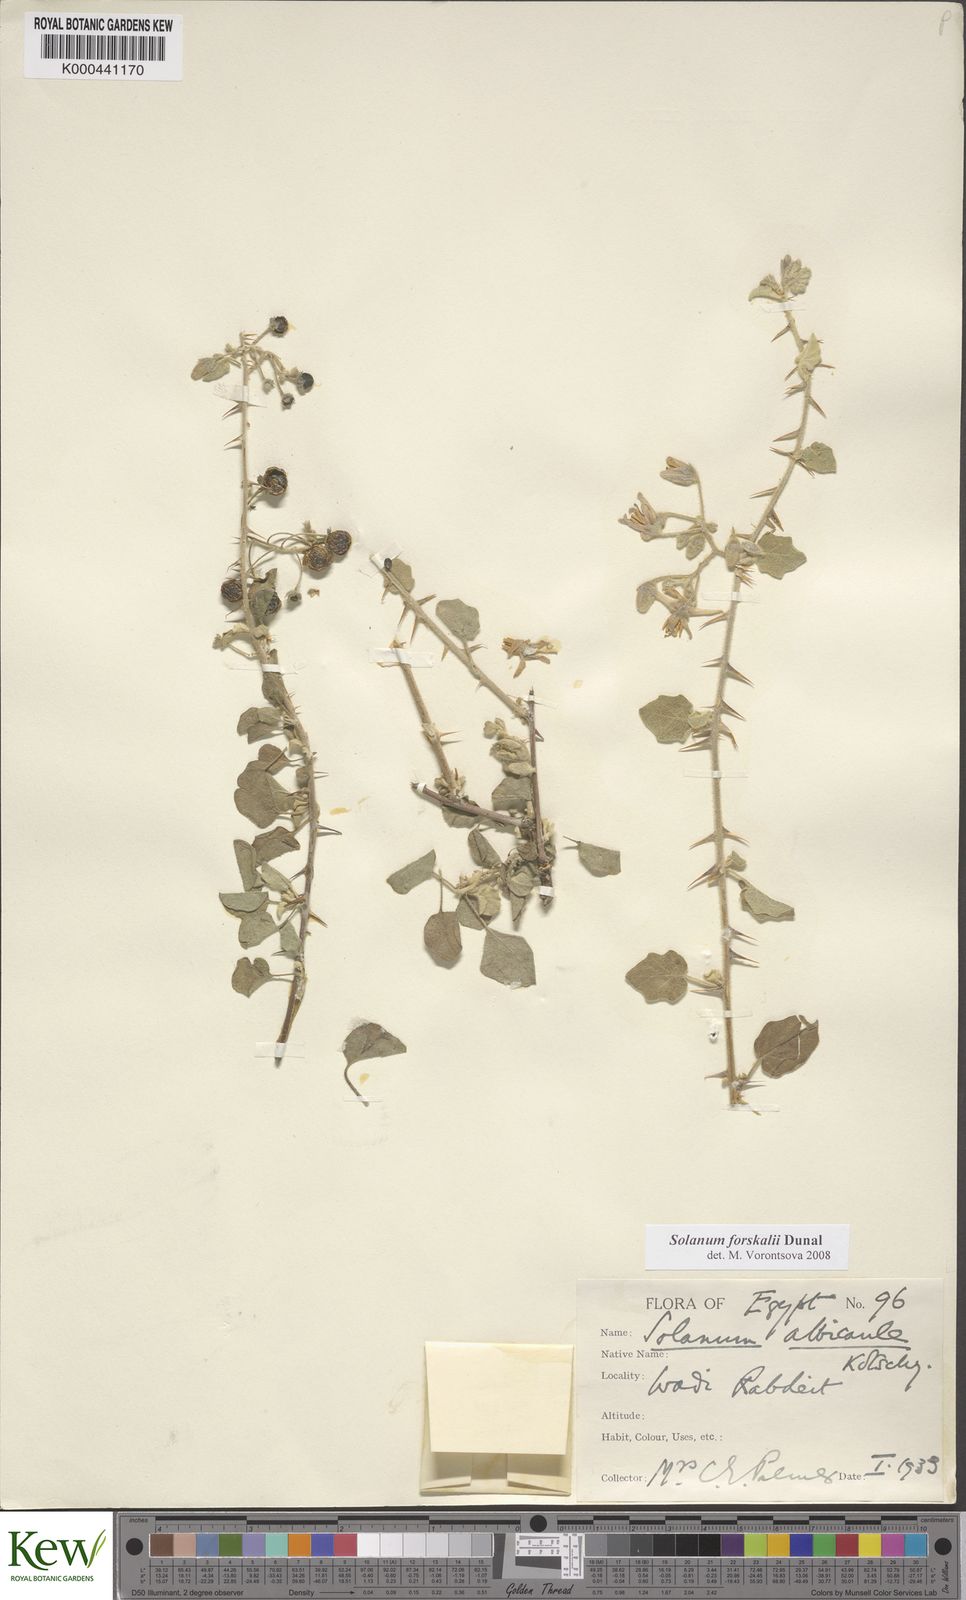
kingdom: Plantae
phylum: Tracheophyta
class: Magnoliopsida
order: Solanales
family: Solanaceae
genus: Solanum
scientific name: Solanum
